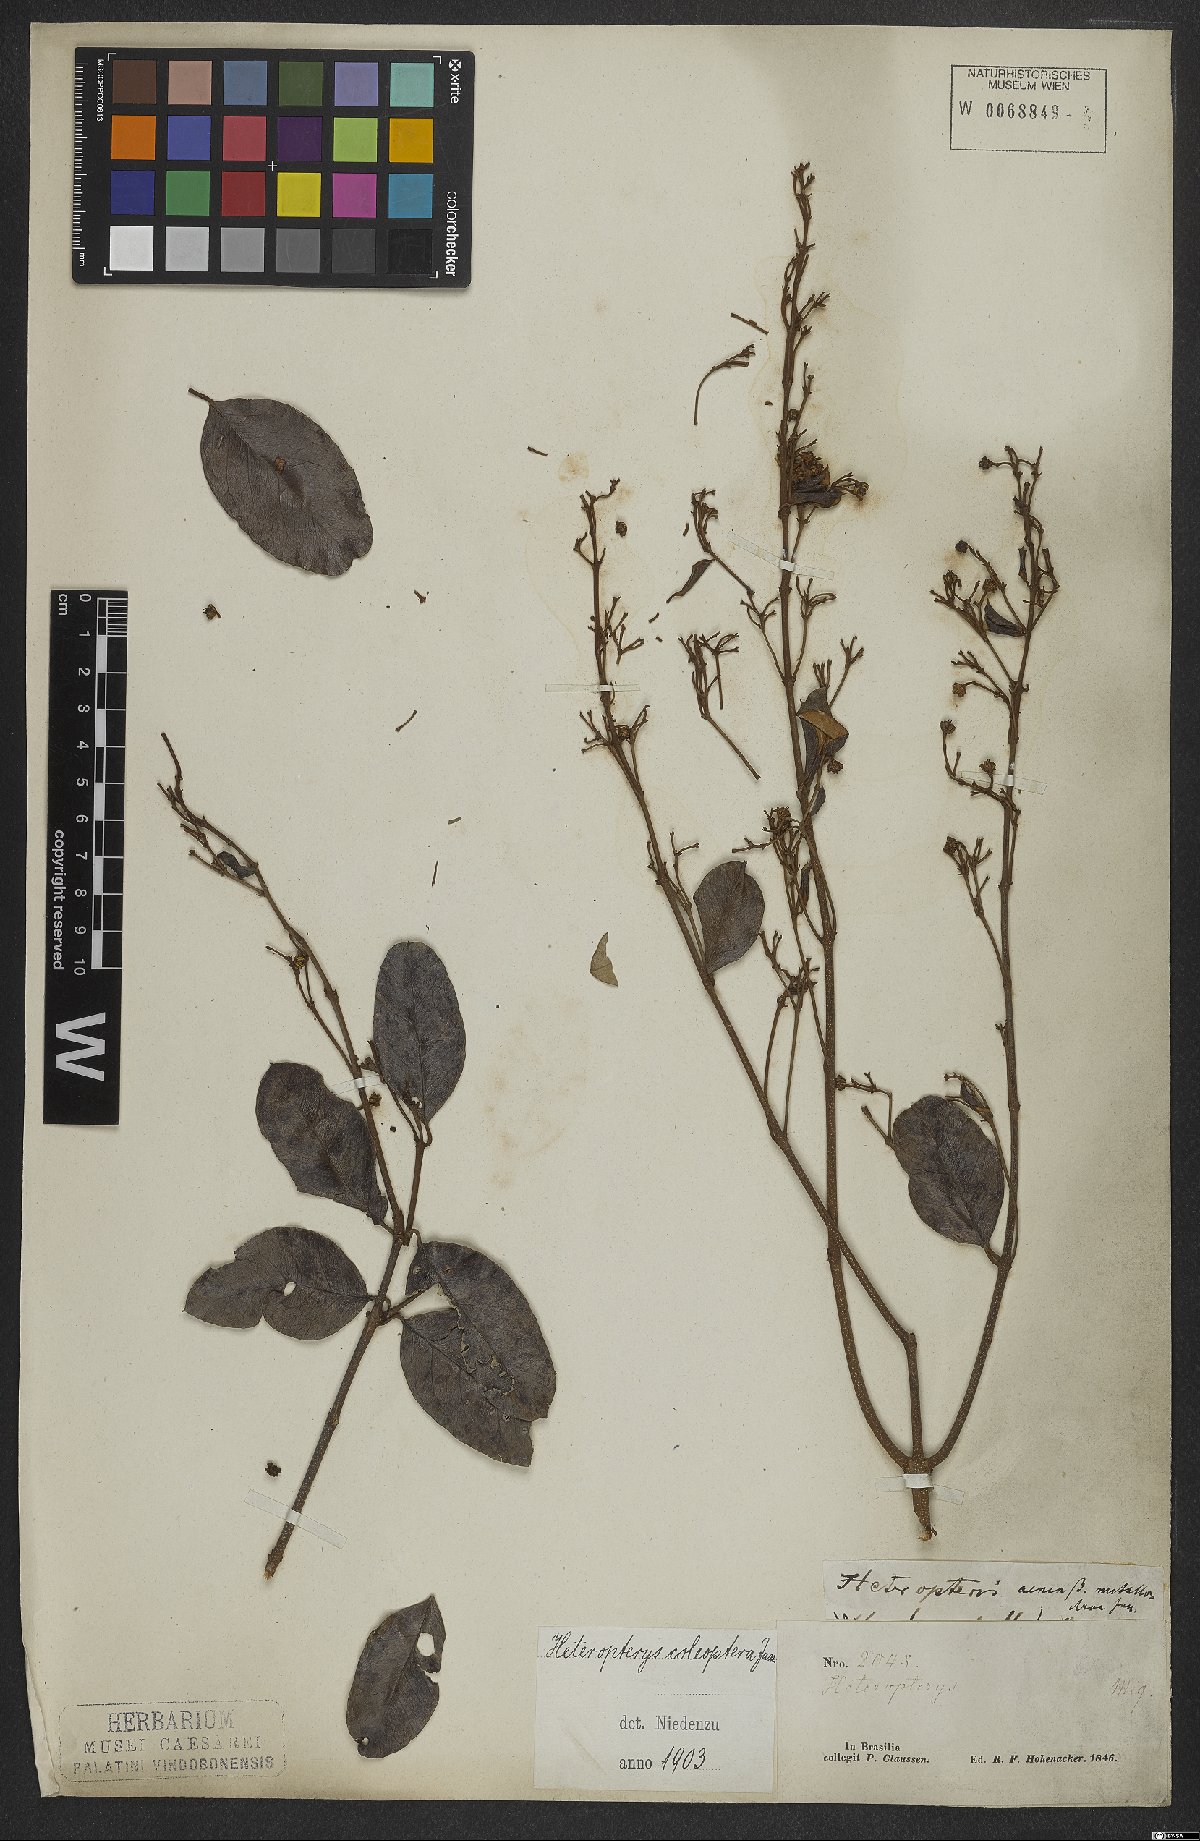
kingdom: Plantae
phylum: Tracheophyta
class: Magnoliopsida
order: Malpighiales
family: Malpighiaceae
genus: Heteropterys
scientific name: Heteropterys coleoptera
